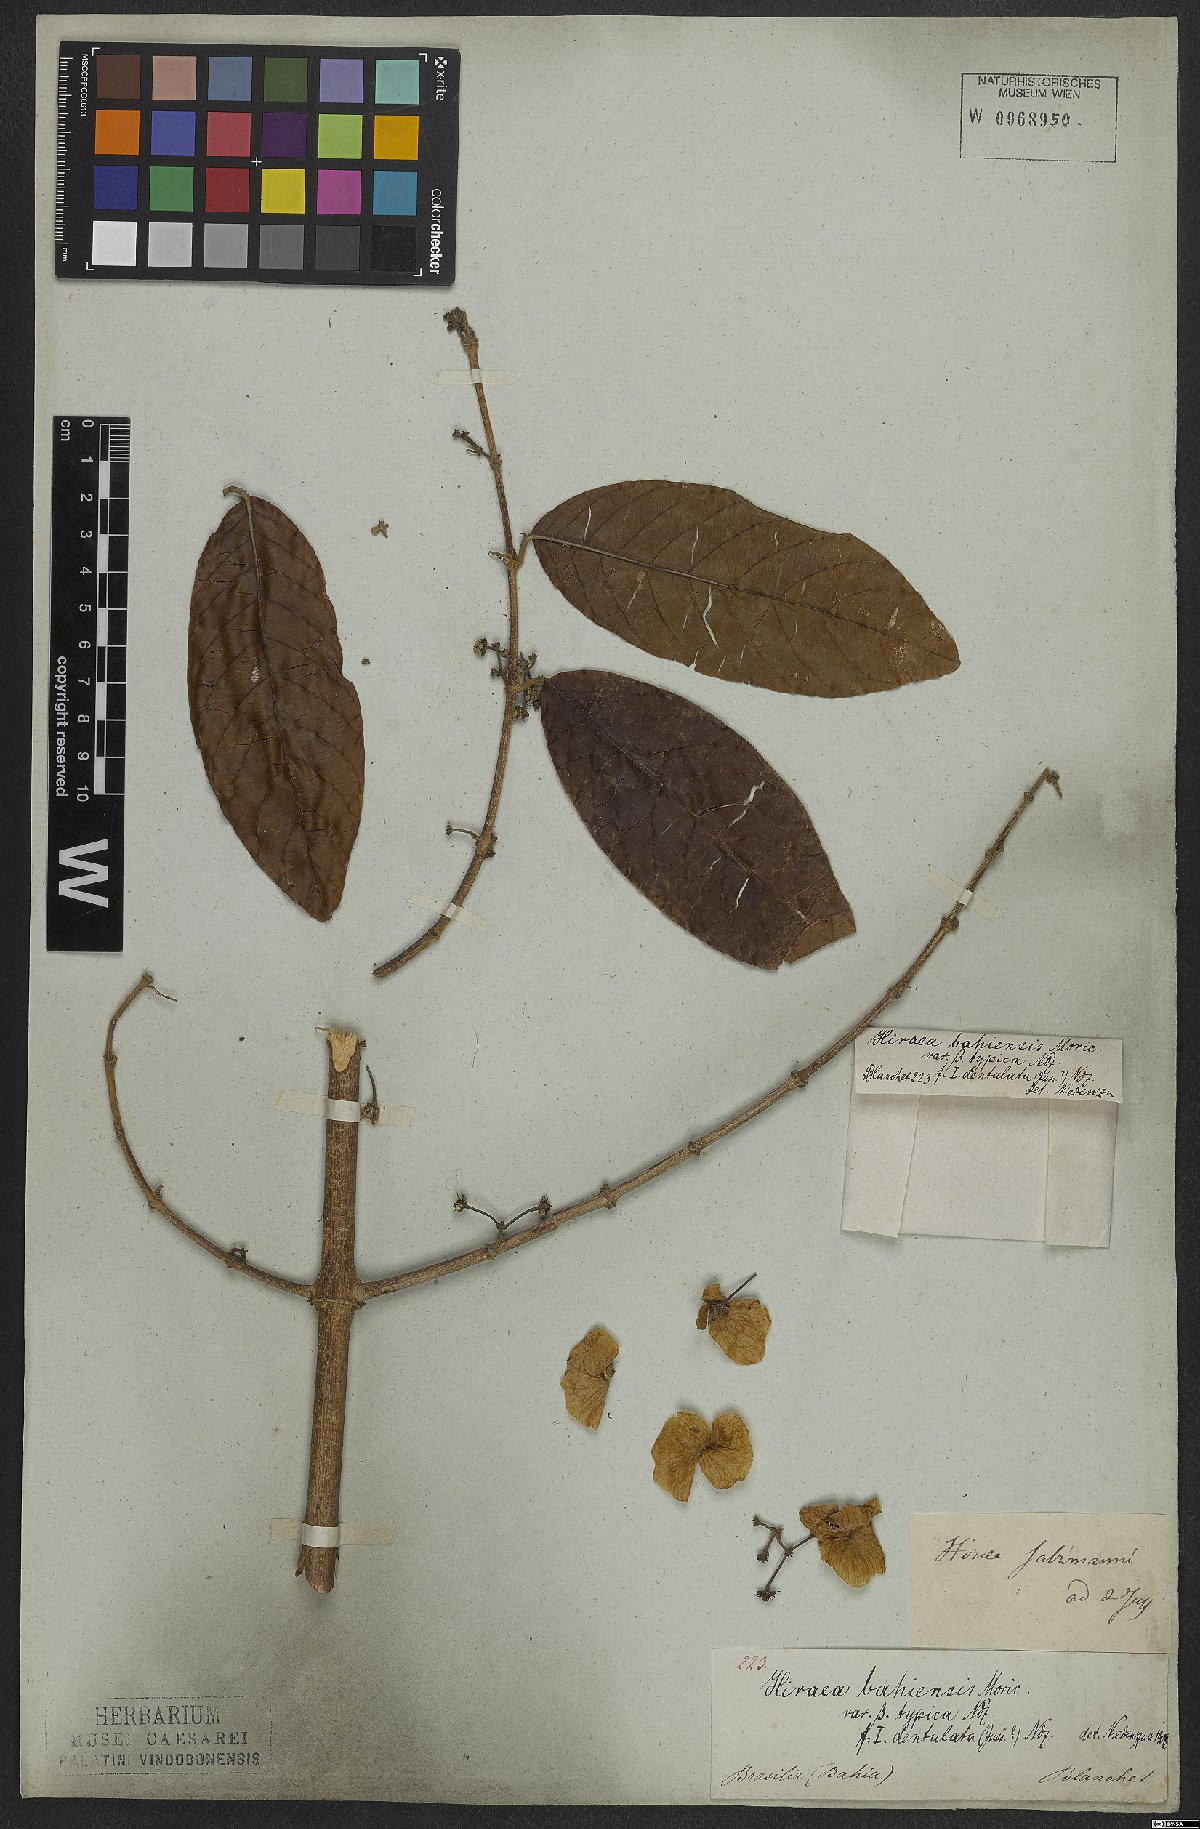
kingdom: Plantae
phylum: Tracheophyta
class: Magnoliopsida
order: Malpighiales
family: Malpighiaceae
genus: Hiraea
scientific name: Hiraea fagifolia
